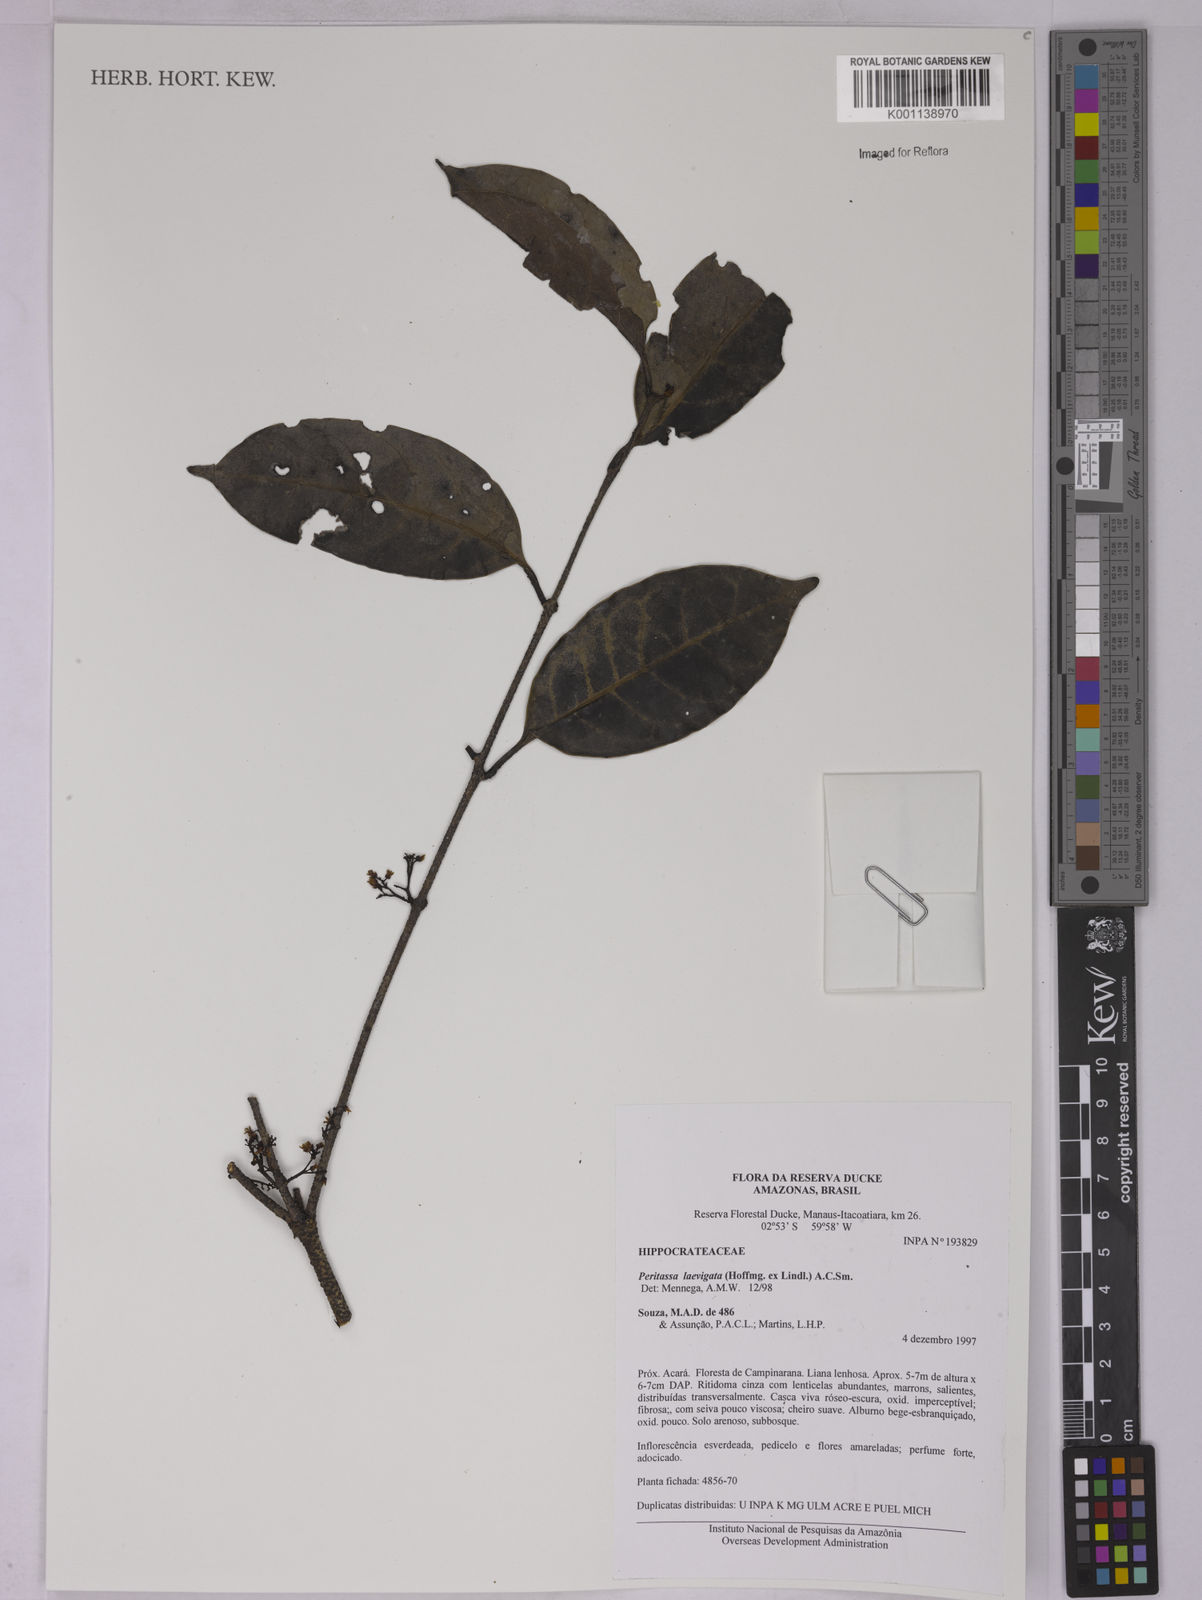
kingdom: Plantae
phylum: Tracheophyta
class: Magnoliopsida
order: Celastrales
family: Celastraceae
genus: Peritassa
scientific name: Peritassa laevigata
